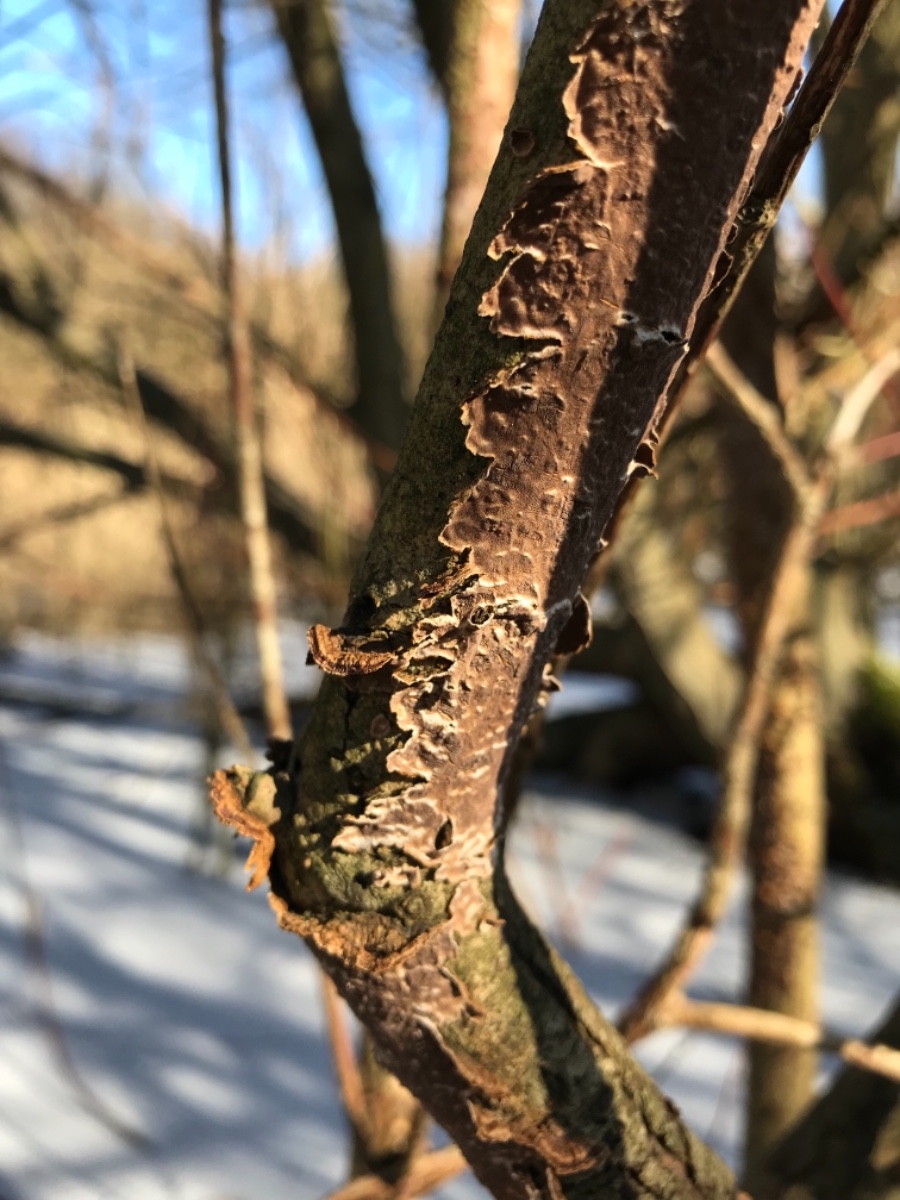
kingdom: Fungi
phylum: Basidiomycota
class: Agaricomycetes
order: Hymenochaetales
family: Hymenochaetaceae
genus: Hydnoporia
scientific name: Hydnoporia tabacina
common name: tobaksbrun ruslædersvamp
